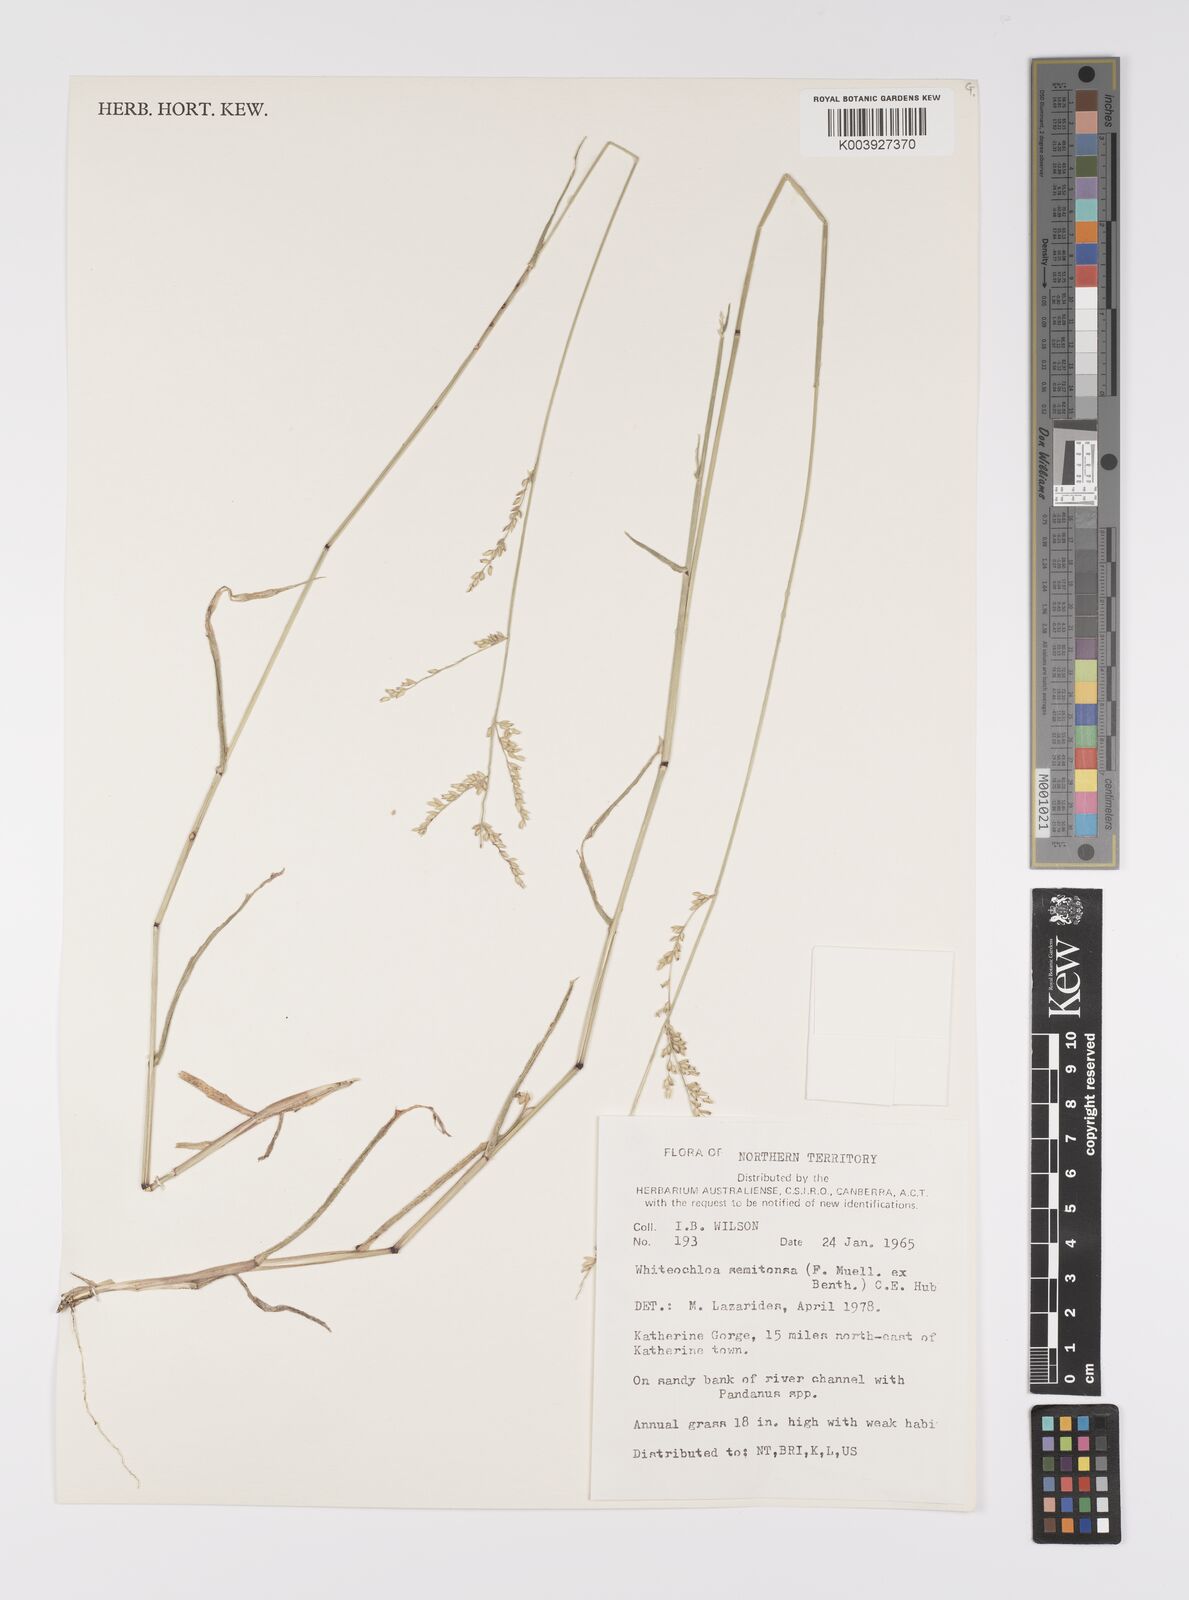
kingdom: Plantae
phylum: Tracheophyta
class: Liliopsida
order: Poales
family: Poaceae
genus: Whiteochloa
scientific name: Whiteochloa semitonsa
